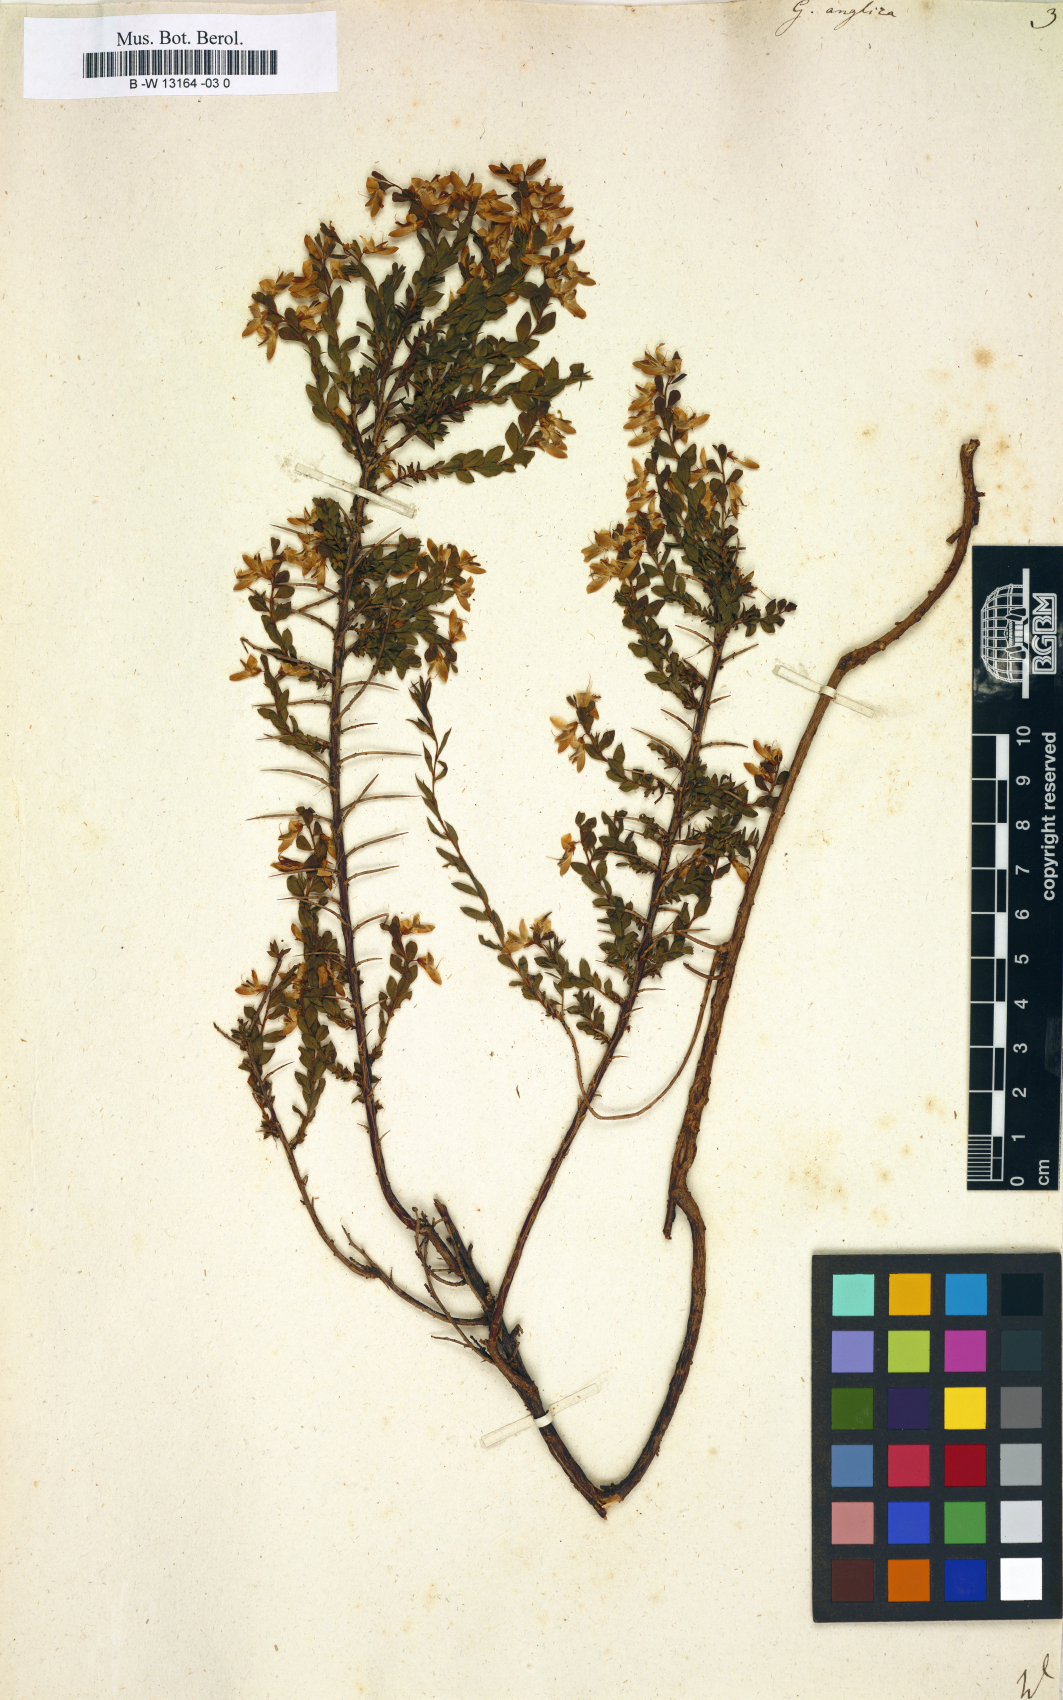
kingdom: Plantae
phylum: Tracheophyta
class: Magnoliopsida
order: Fabales
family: Fabaceae
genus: Genista
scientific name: Genista anglica
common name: Petty whin
